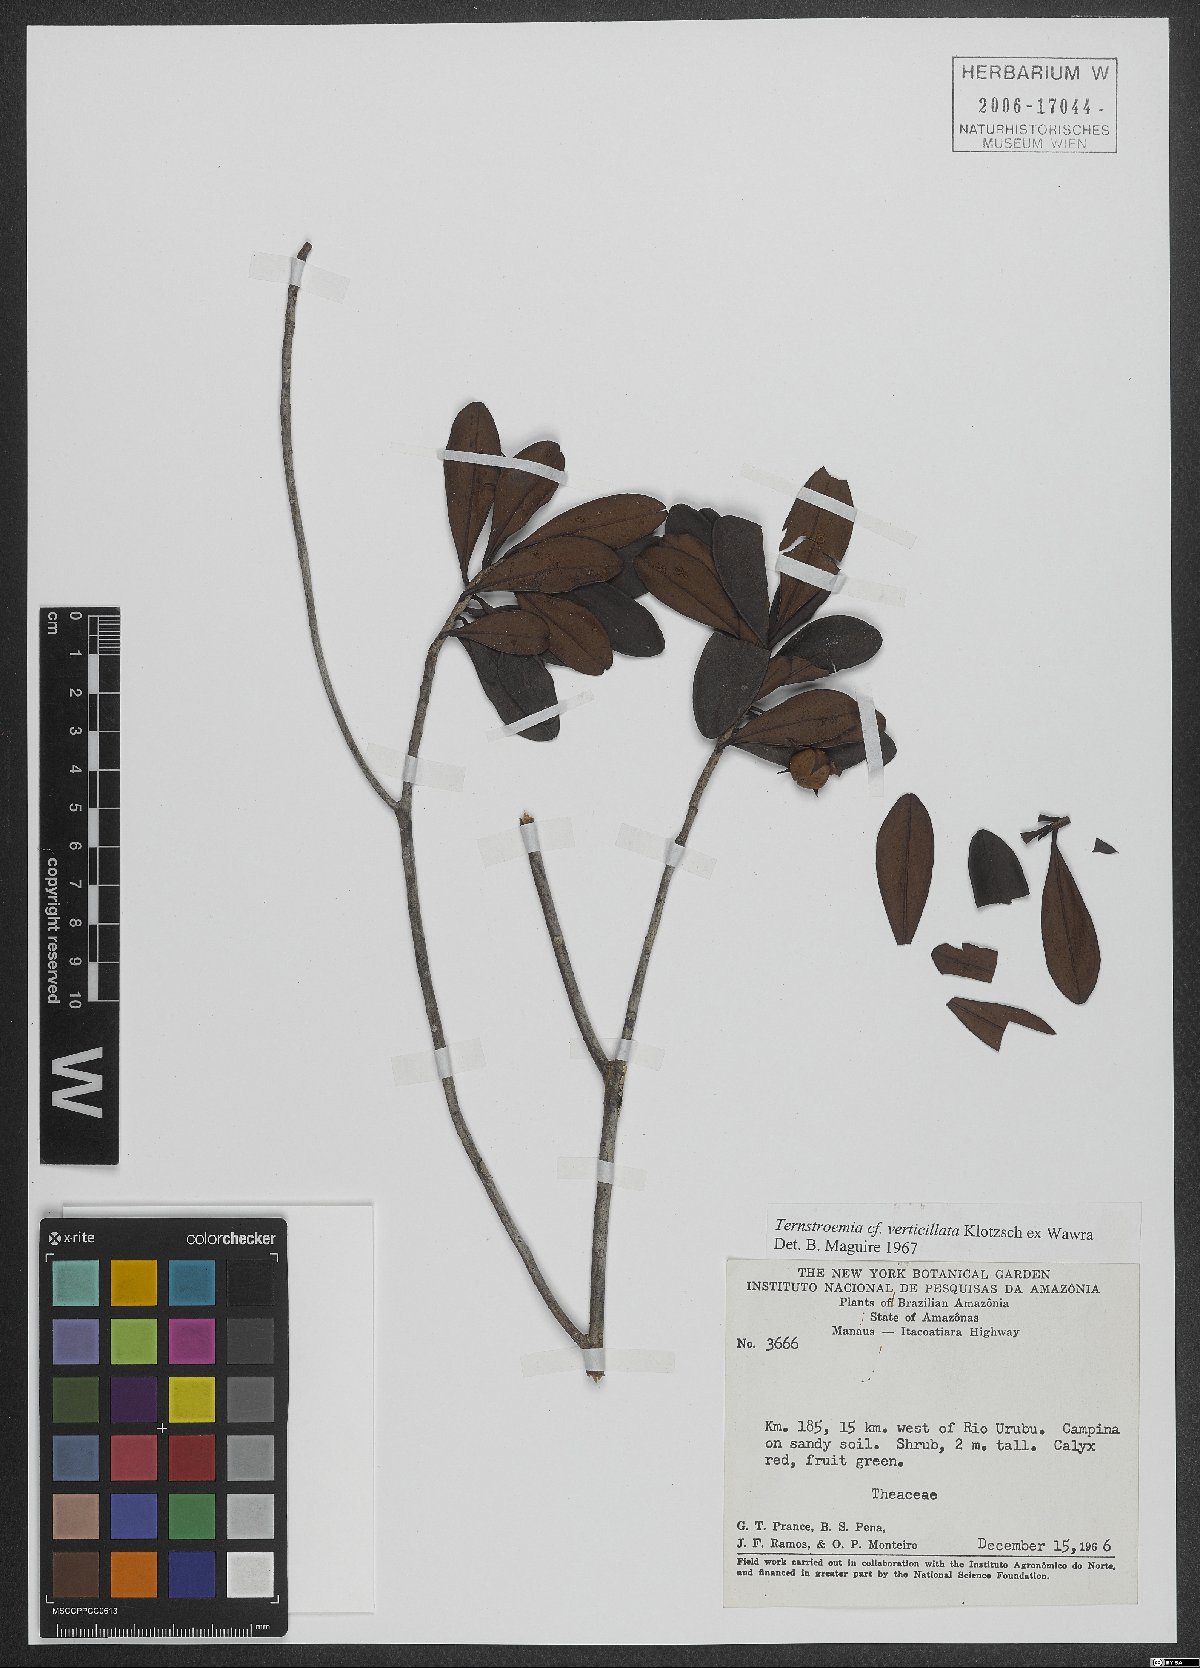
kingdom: Plantae
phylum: Tracheophyta
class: Magnoliopsida
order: Ericales
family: Pentaphylacaceae
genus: Ternstroemia
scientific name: Ternstroemia verticillata
